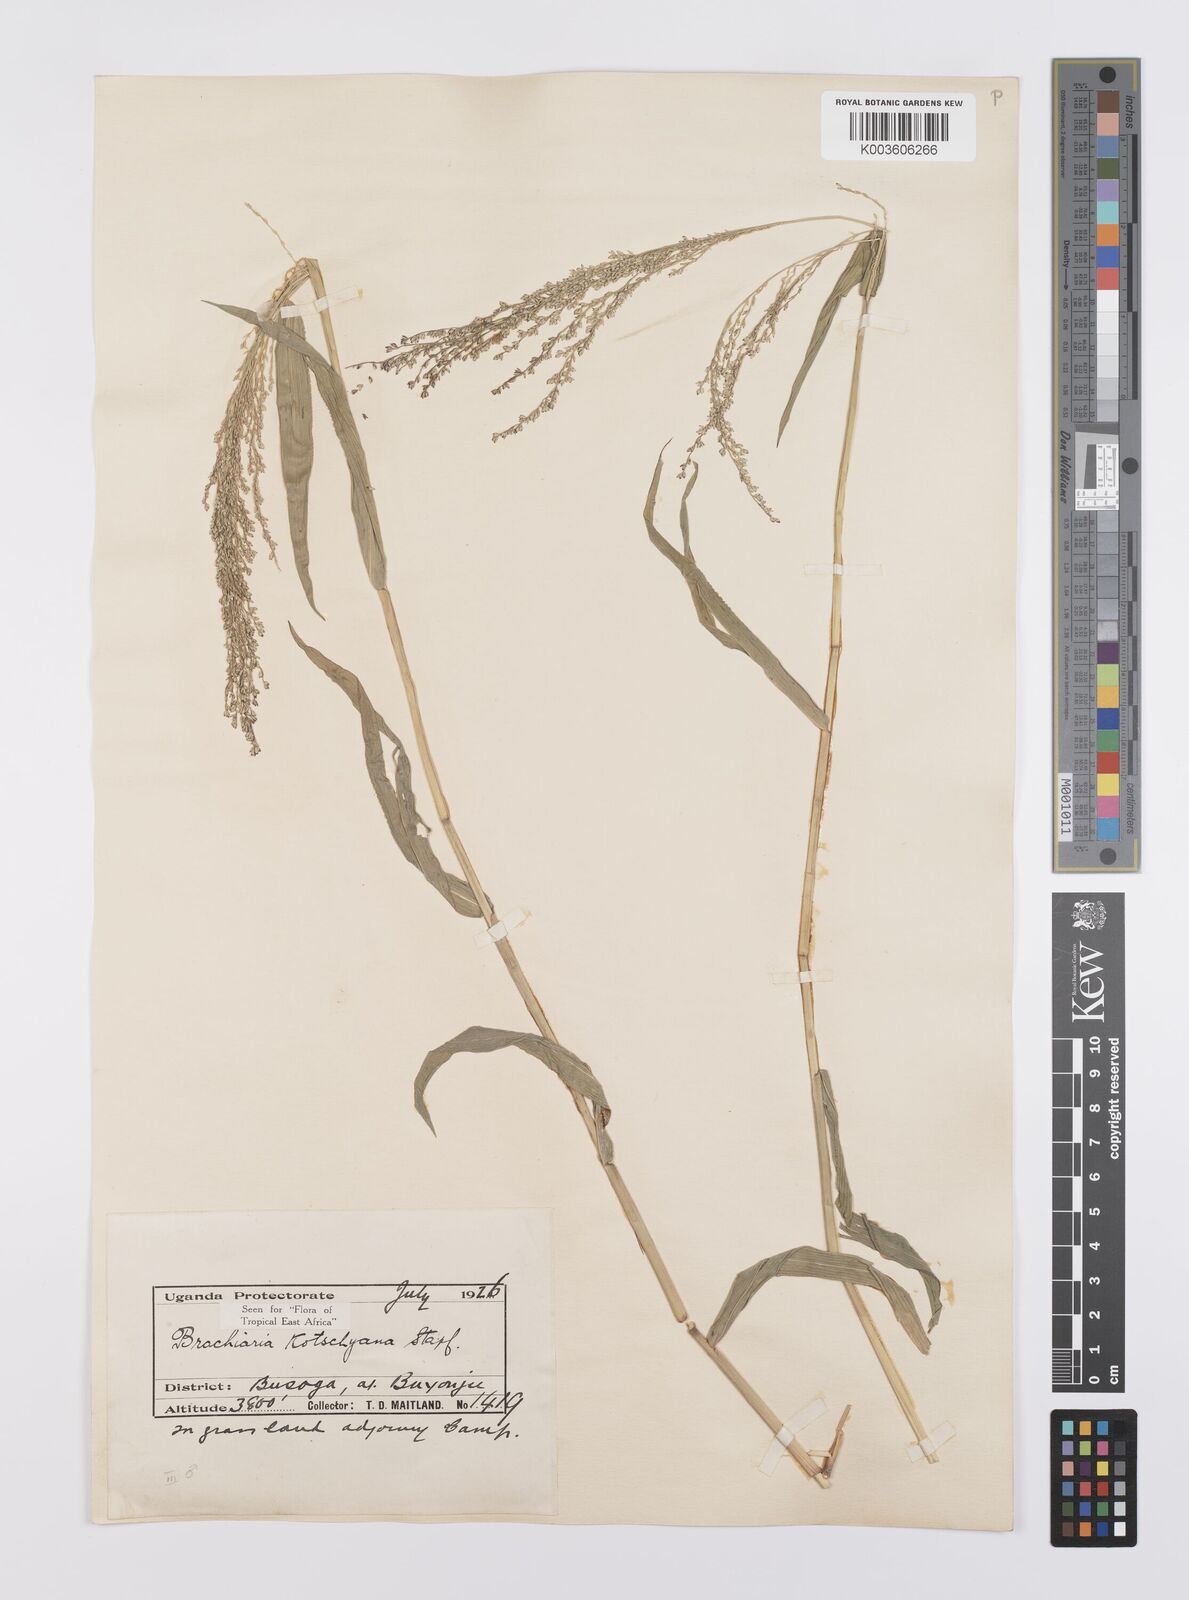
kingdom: Plantae
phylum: Tracheophyta
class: Liliopsida
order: Poales
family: Poaceae
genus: Urochloa
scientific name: Urochloa comata
